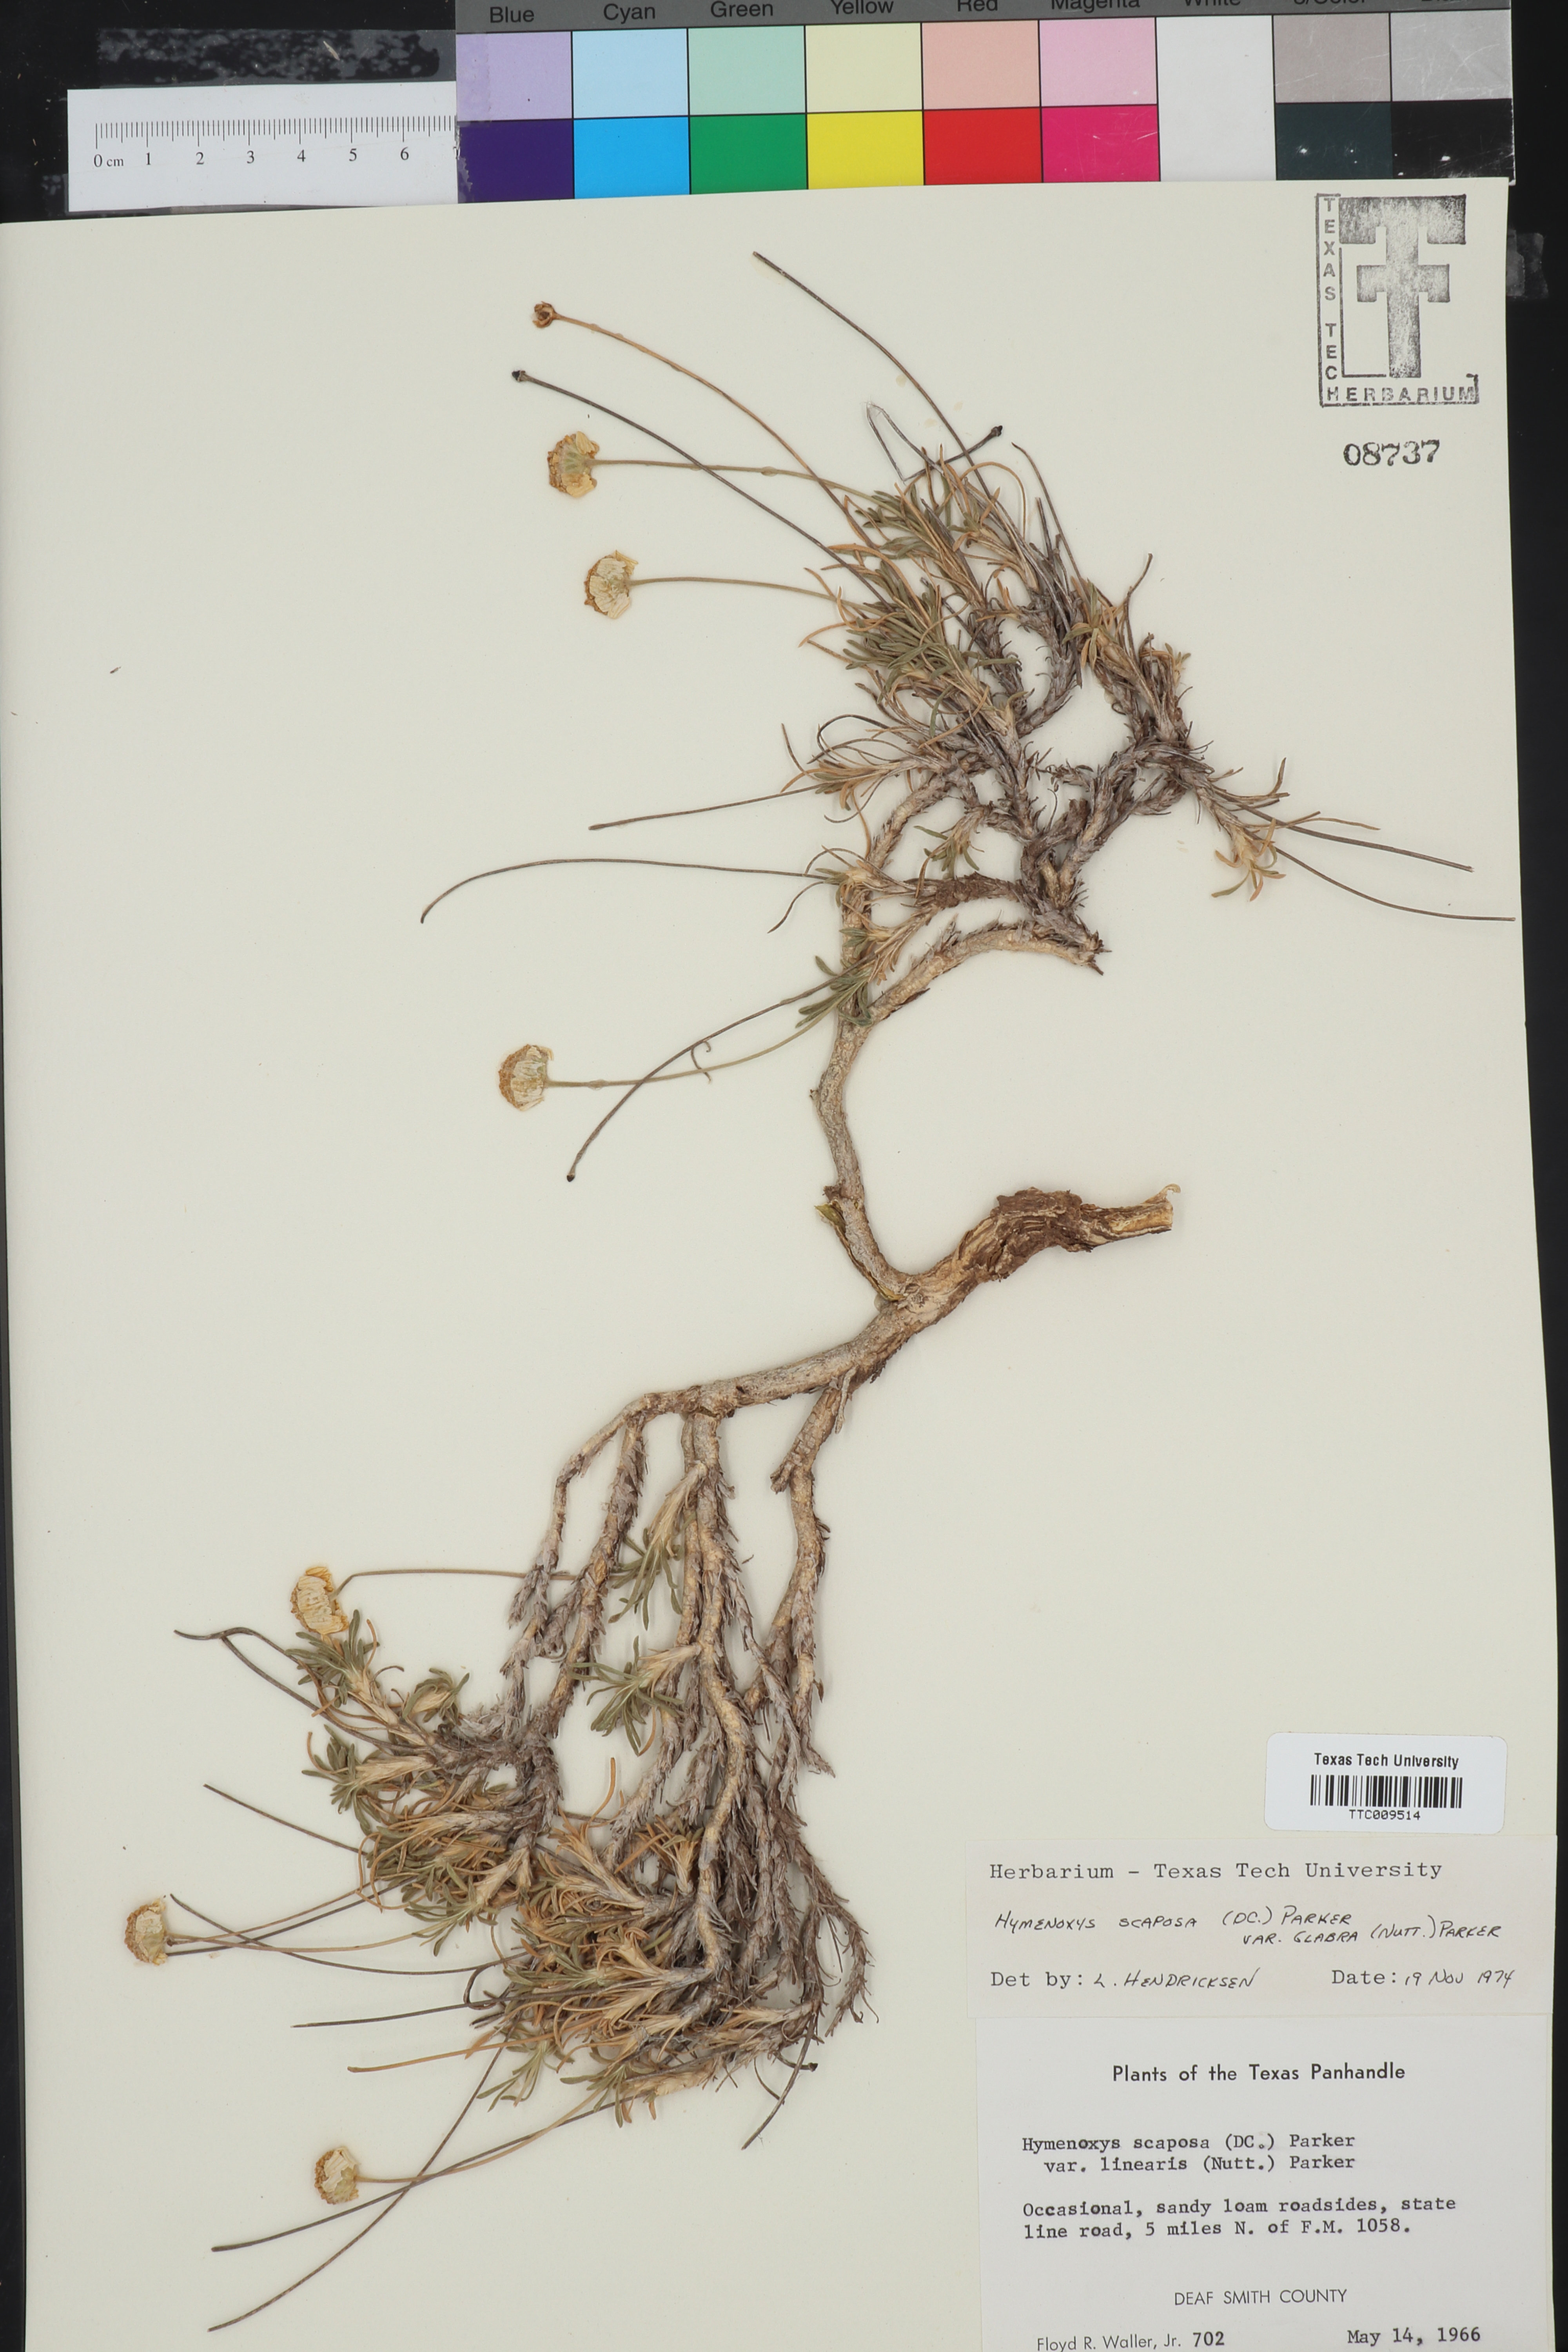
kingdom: Plantae
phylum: Tracheophyta
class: Magnoliopsida
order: Asterales
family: Asteraceae
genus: Tetraneuris
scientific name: Tetraneuris scaposa
